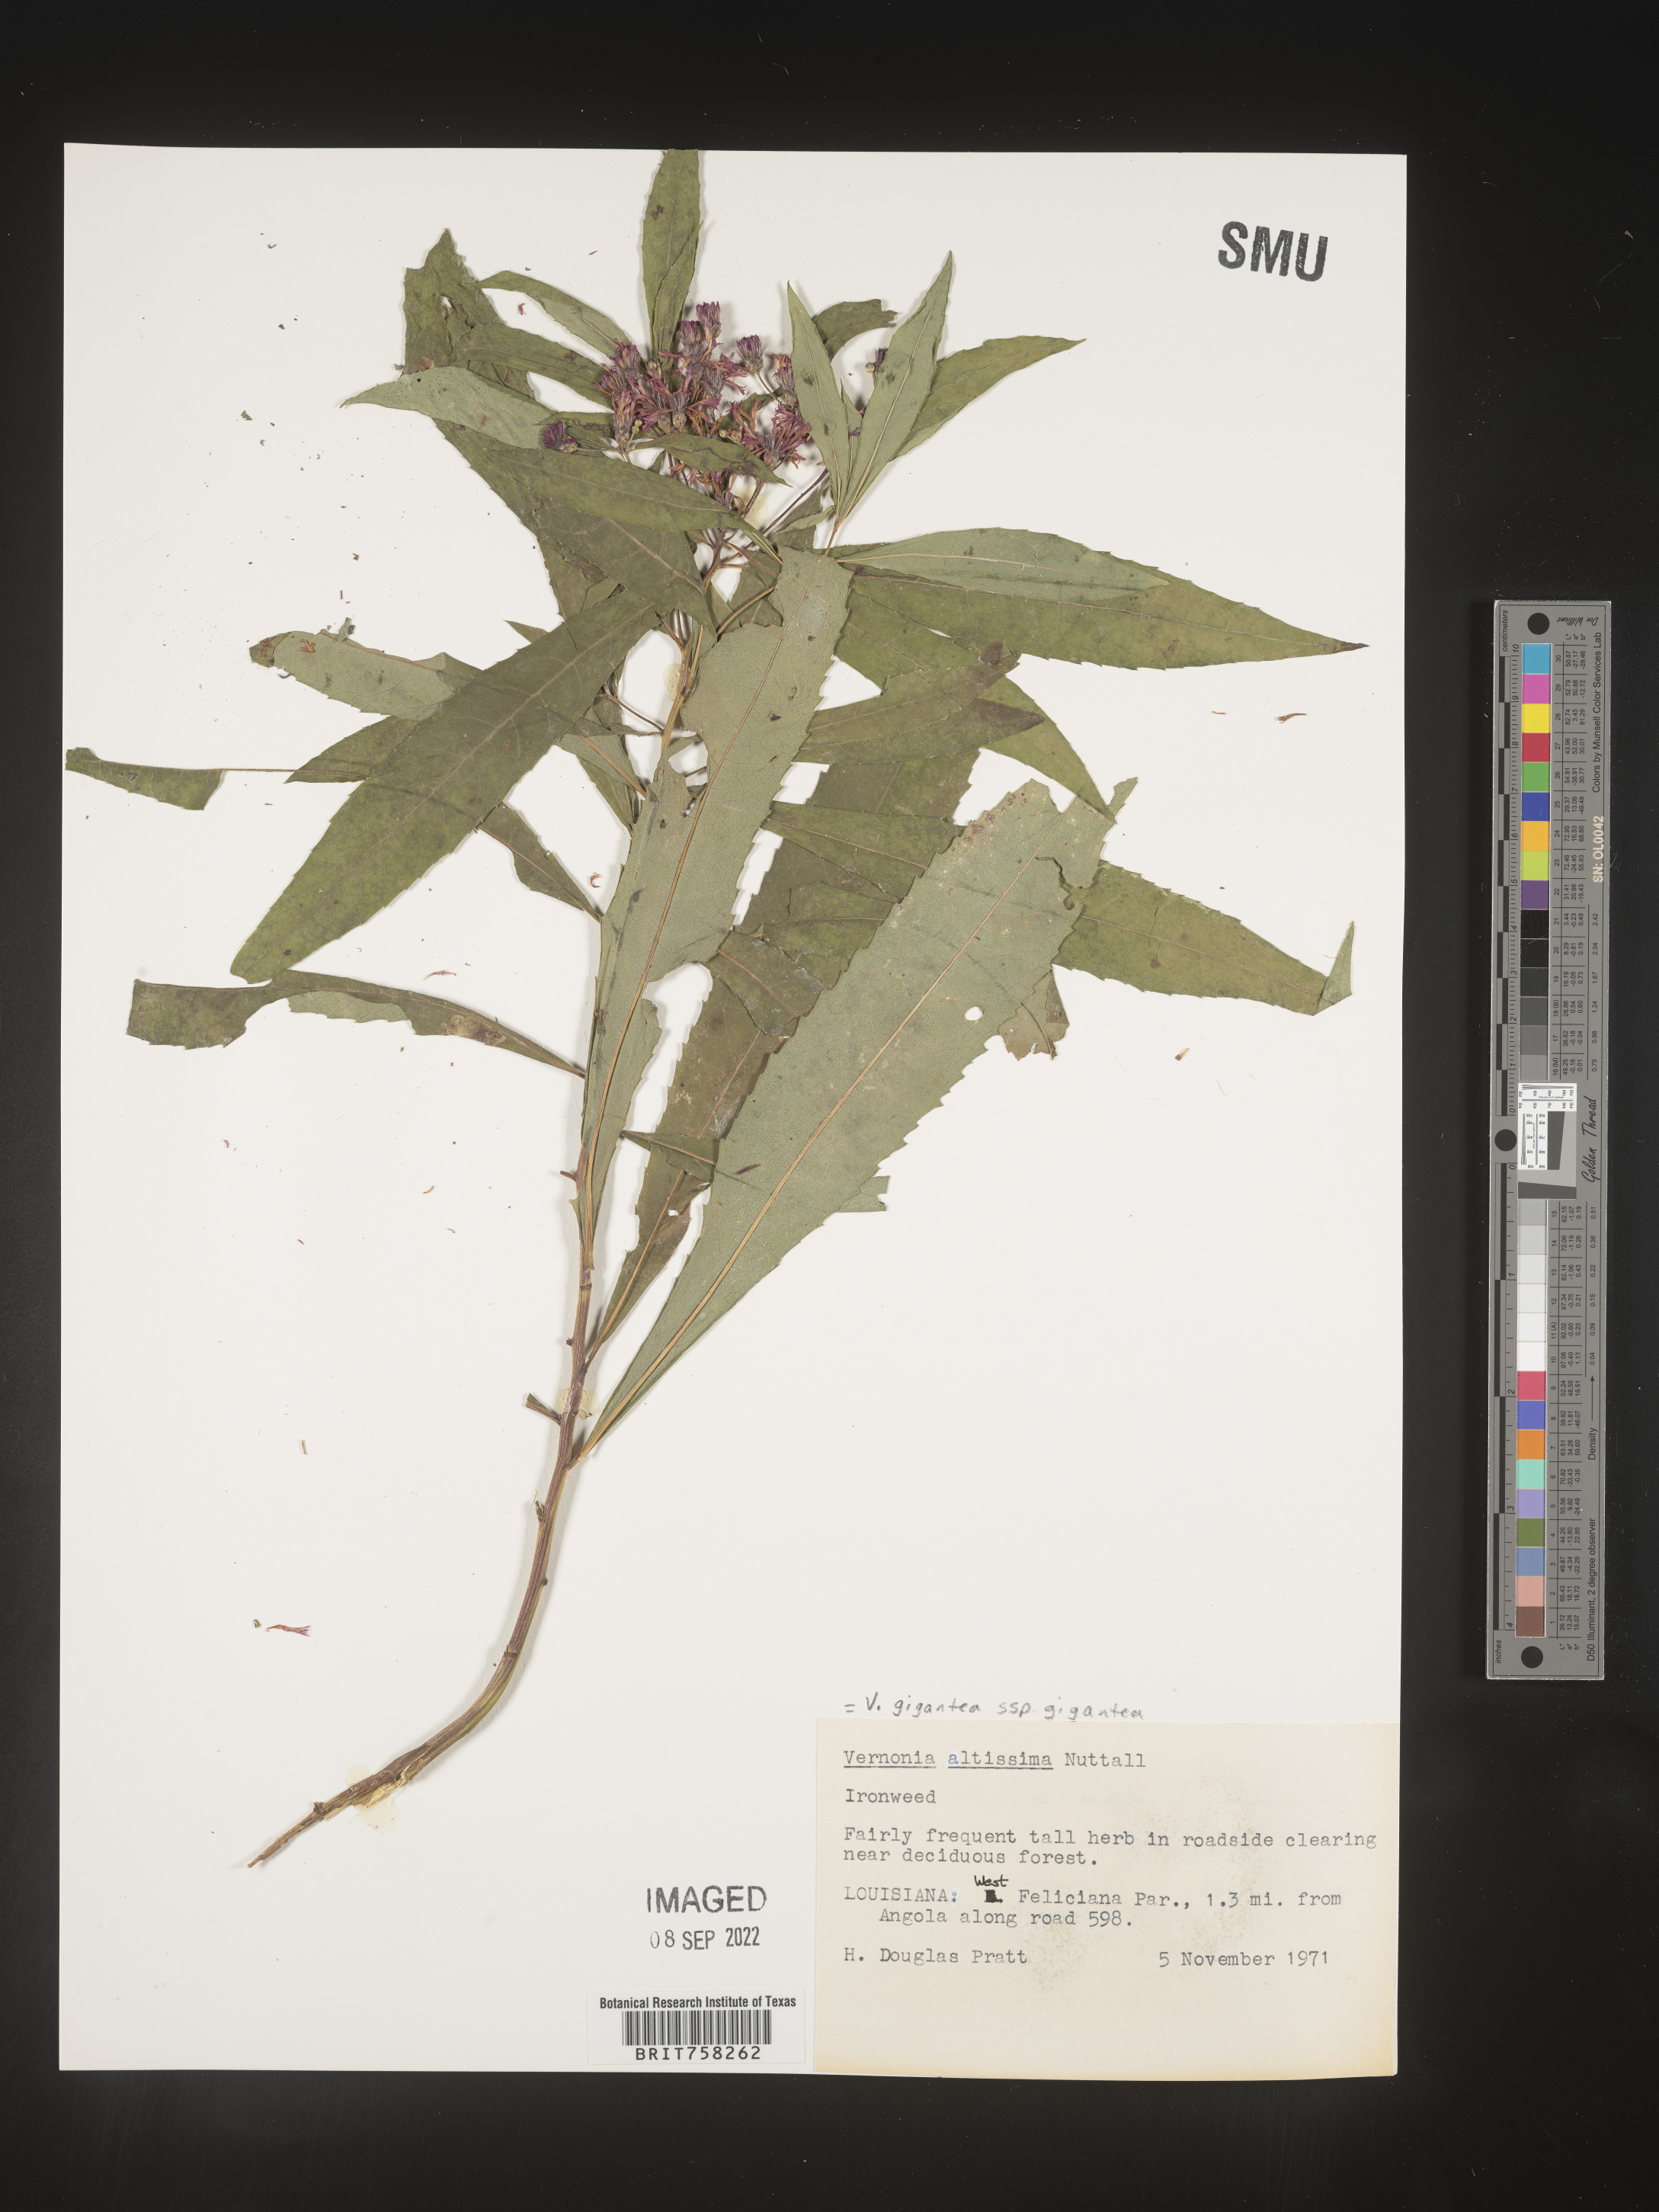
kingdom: Plantae
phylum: Tracheophyta
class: Magnoliopsida
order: Asterales
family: Asteraceae
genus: Vernonia
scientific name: Vernonia gigantea
